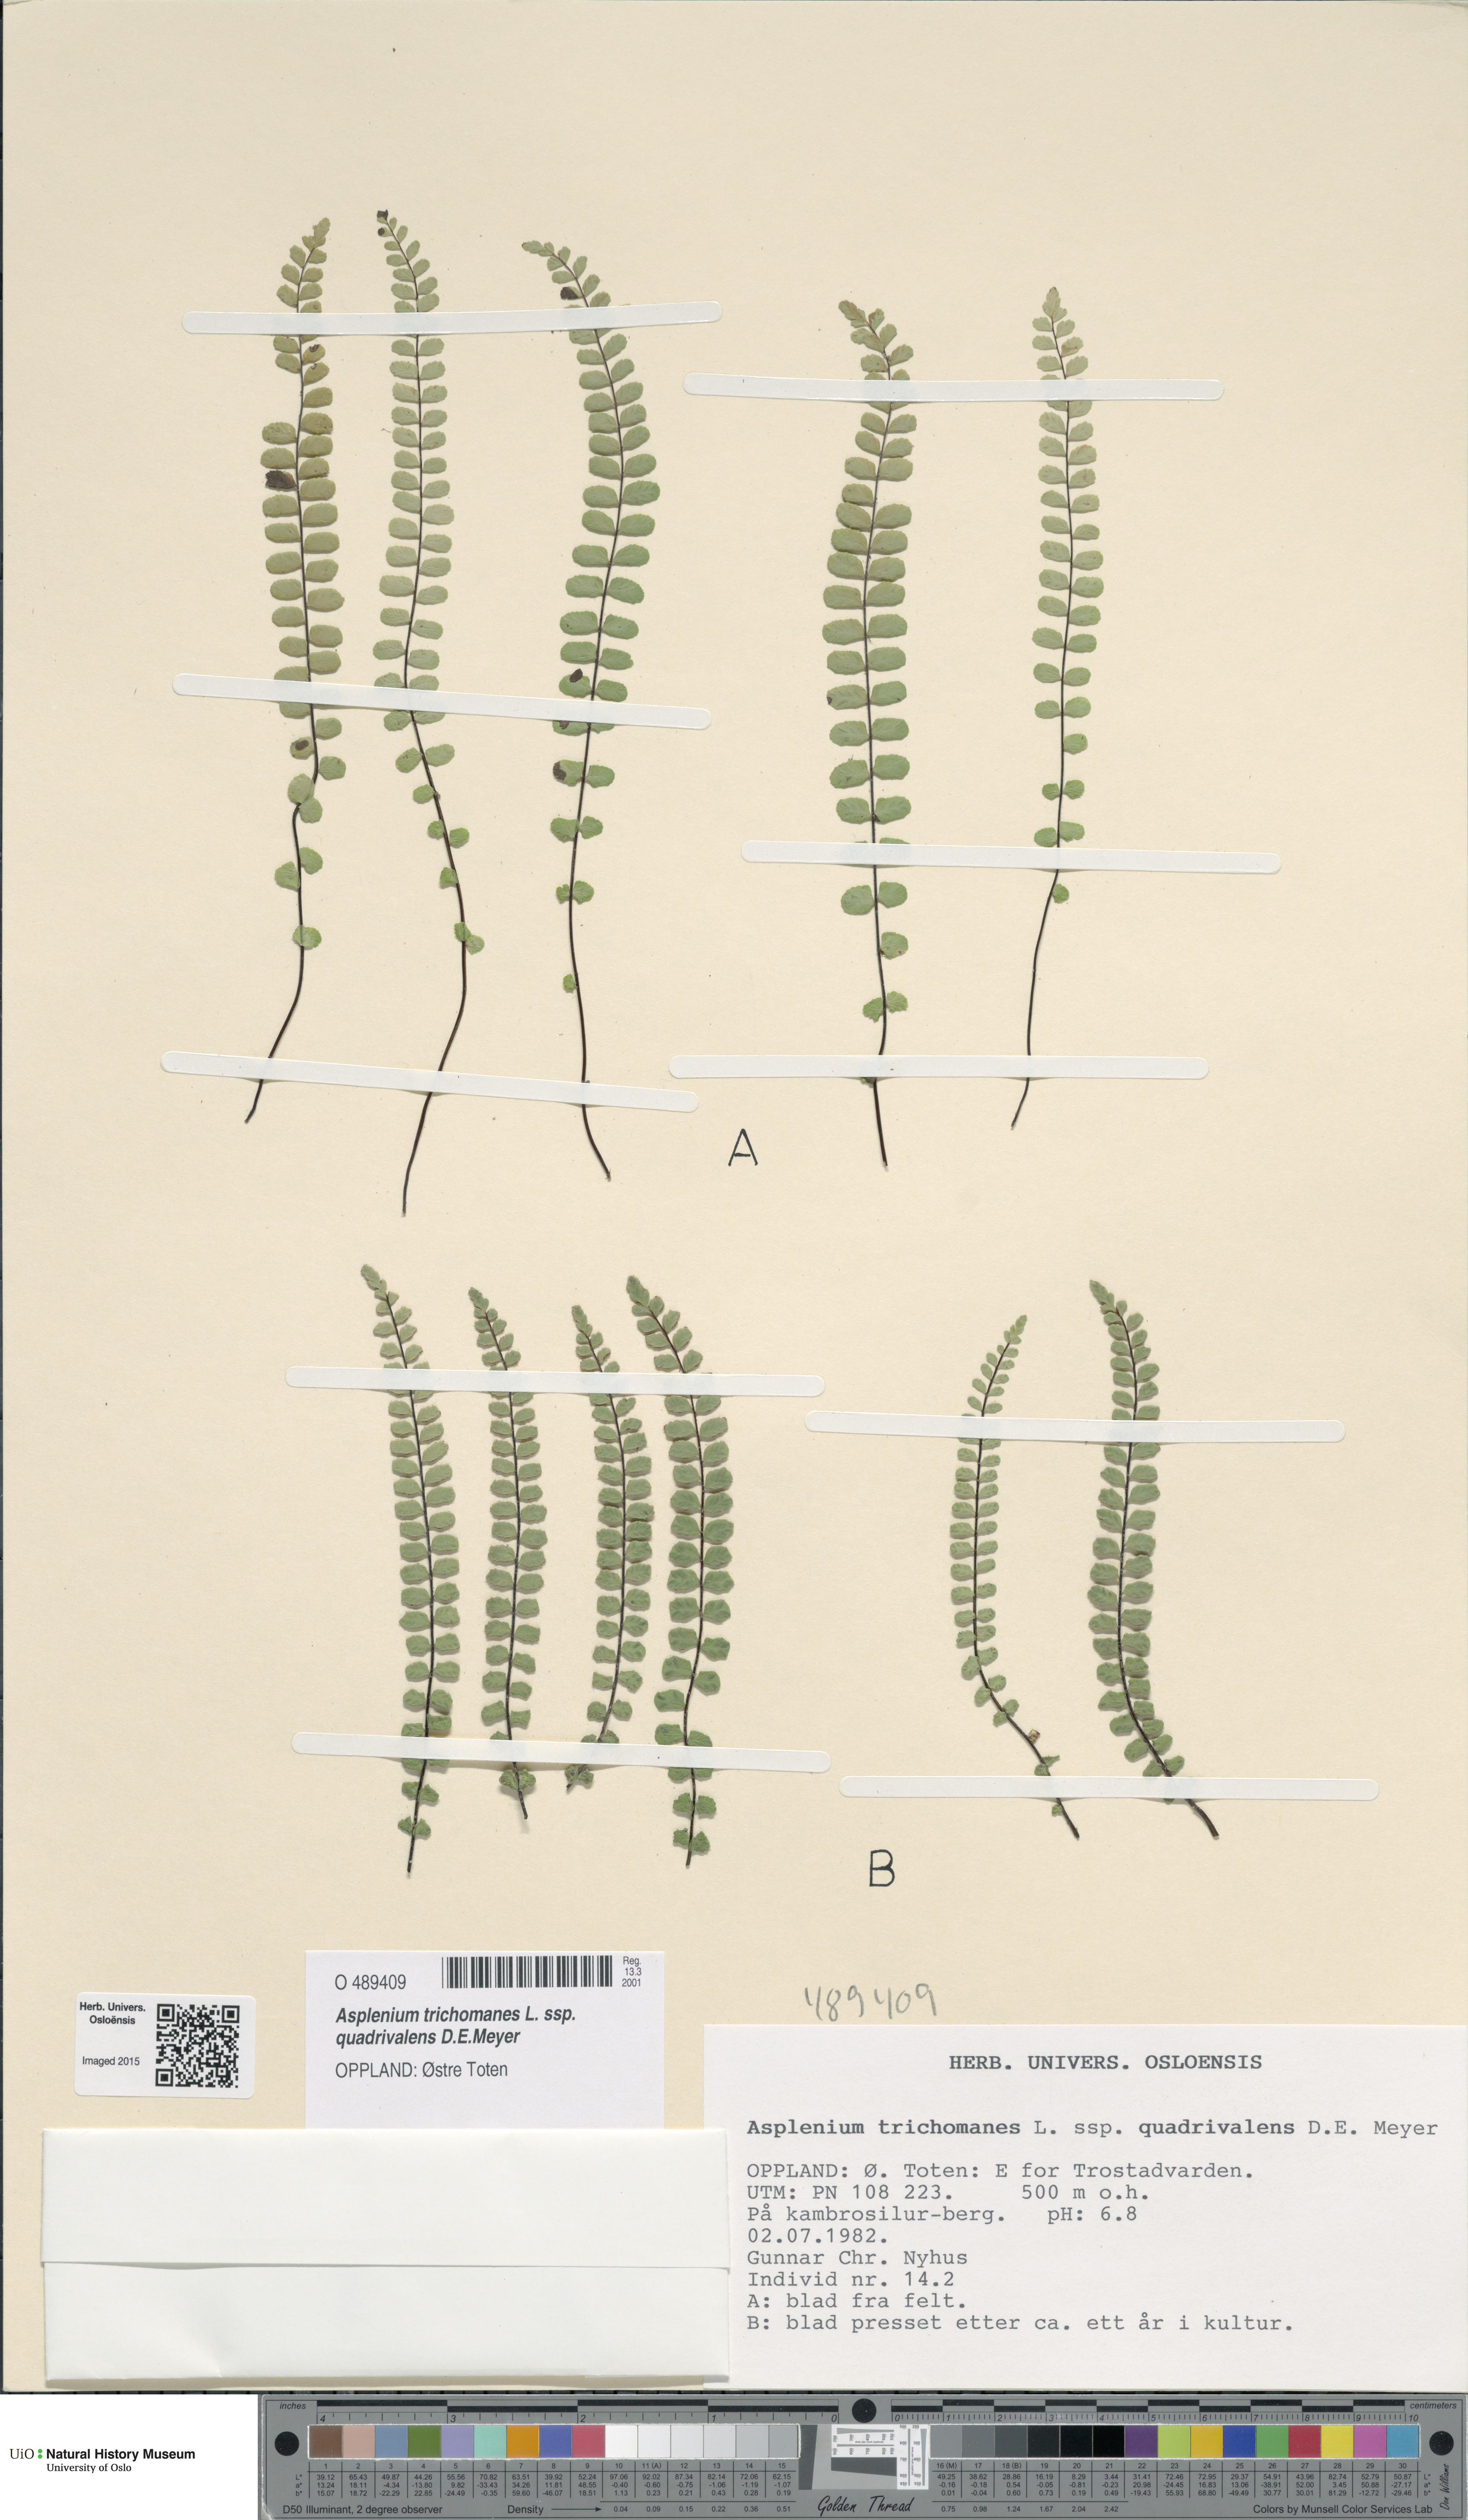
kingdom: Plantae
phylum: Tracheophyta
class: Polypodiopsida
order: Polypodiales
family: Aspleniaceae
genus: Asplenium
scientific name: Asplenium quadrivalens
